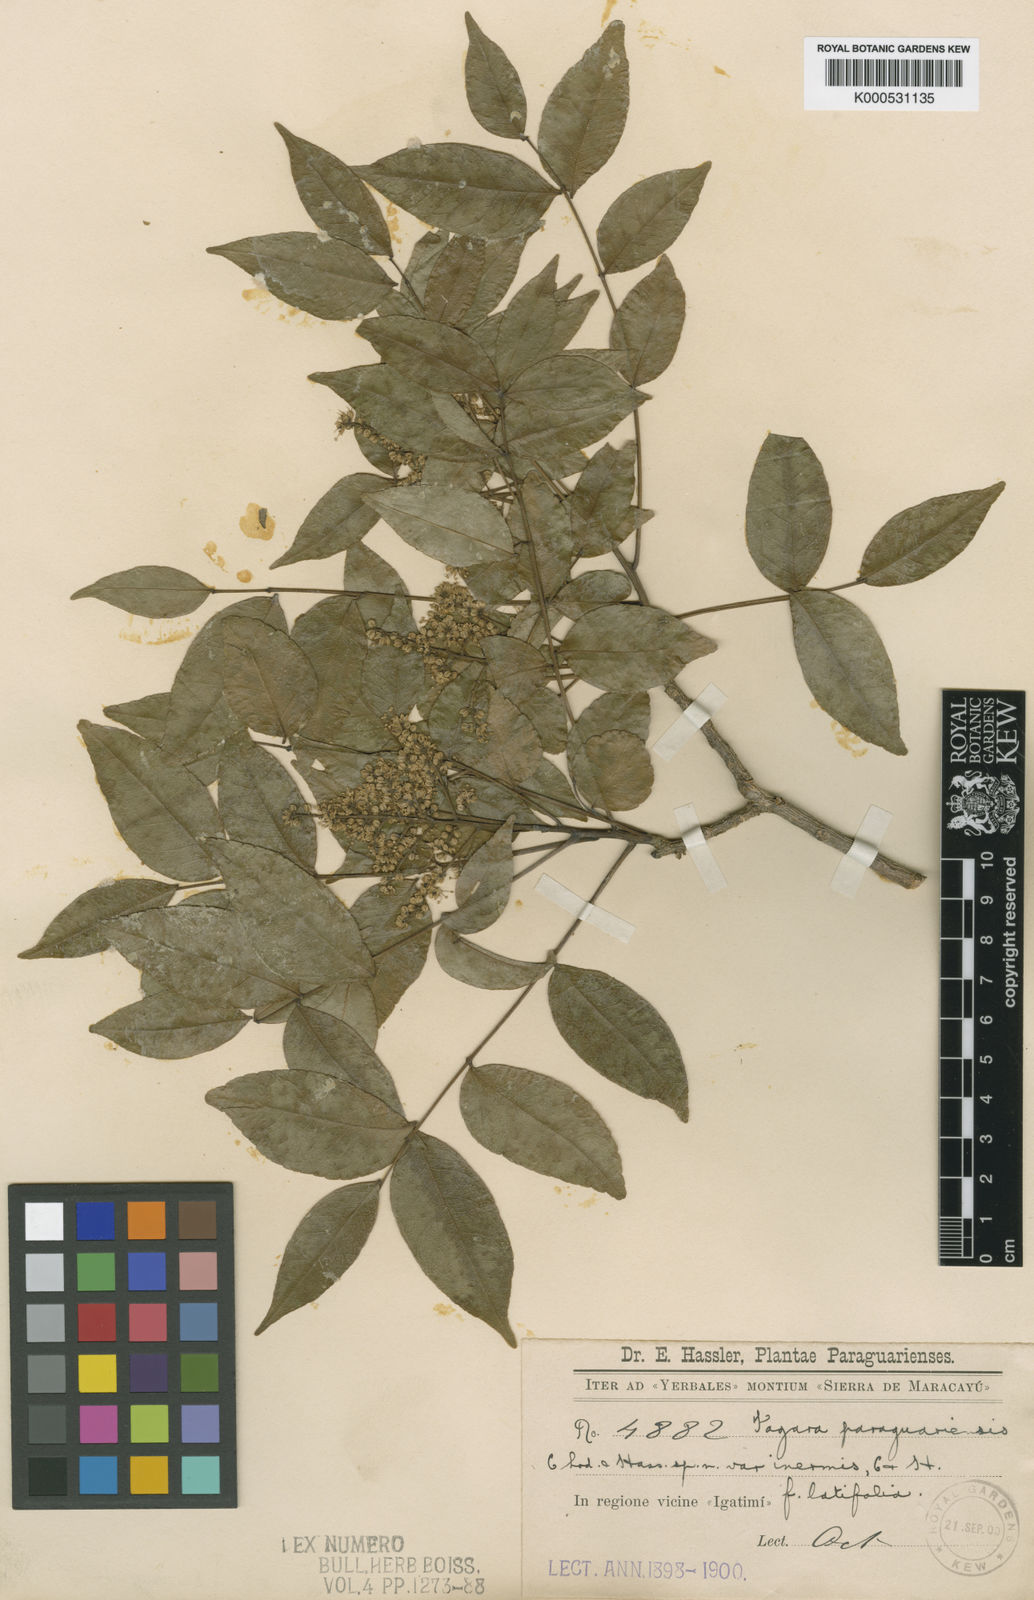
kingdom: Plantae
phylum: Tracheophyta
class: Magnoliopsida
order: Sapindales
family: Rutaceae
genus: Zanthoxylum
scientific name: Zanthoxylum petiolare
